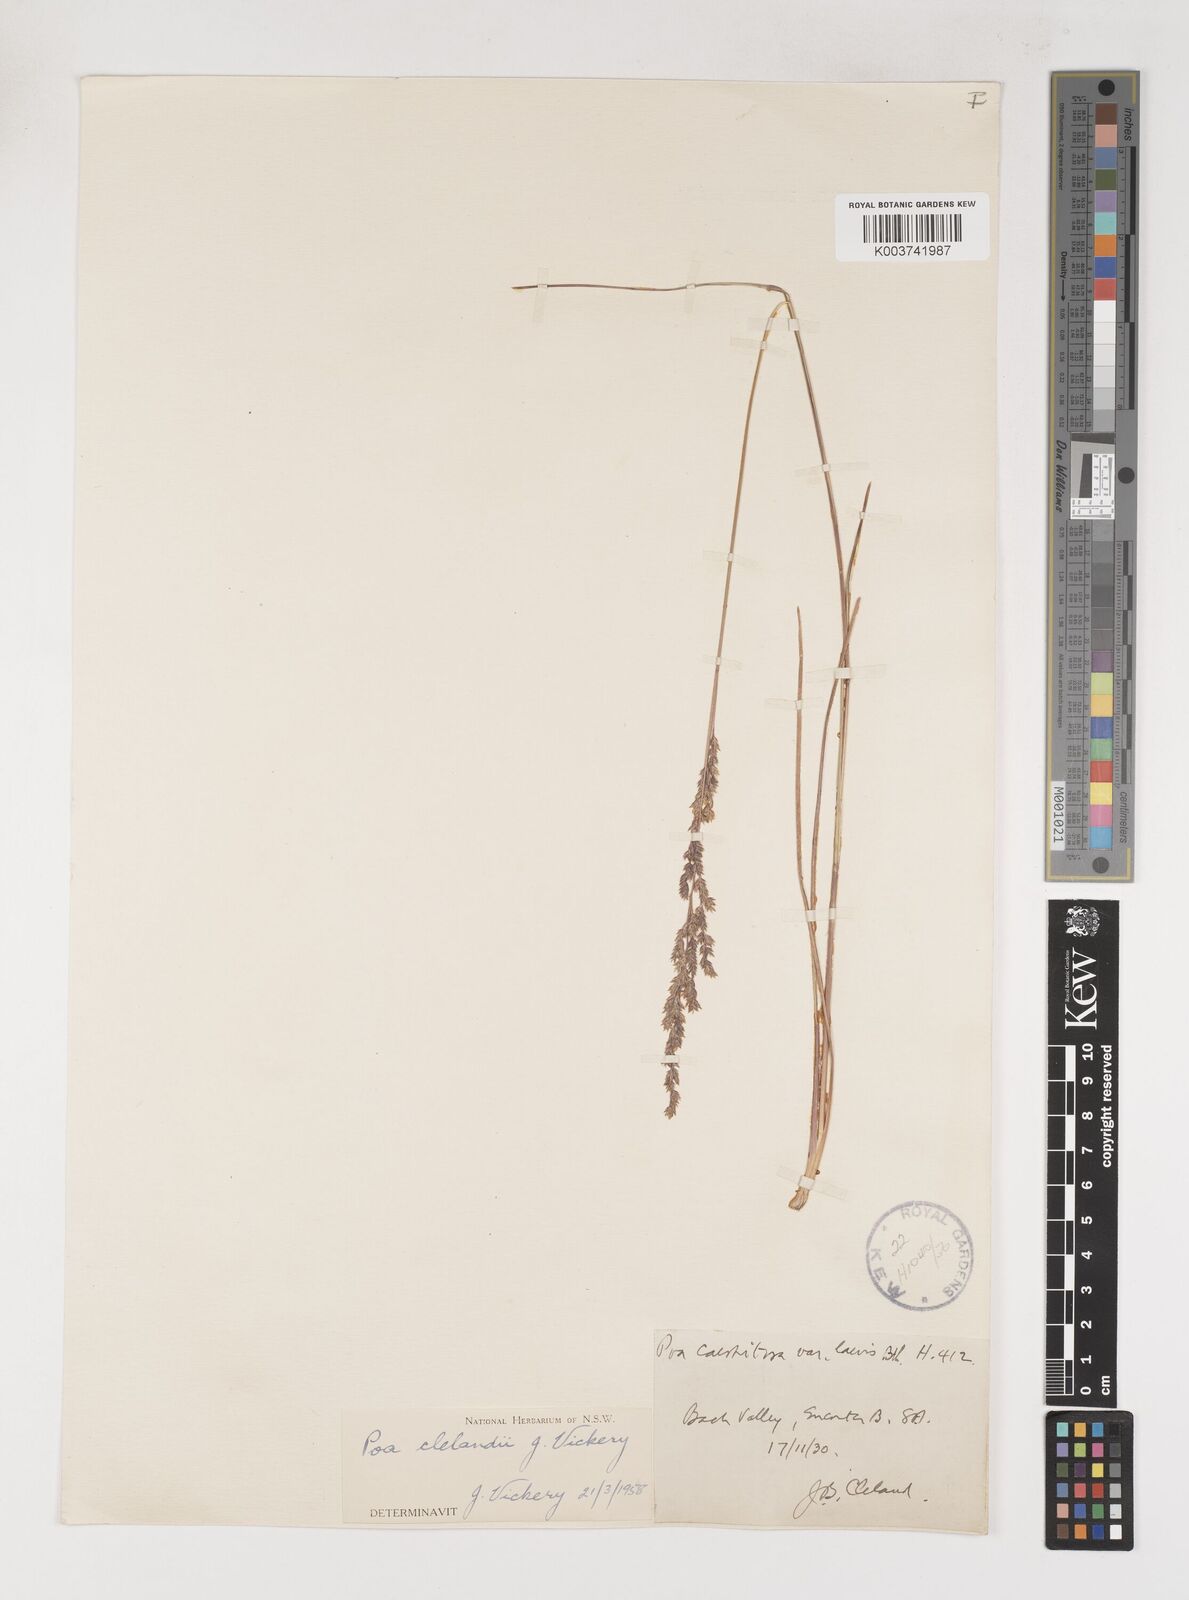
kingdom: Plantae
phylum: Tracheophyta
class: Liliopsida
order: Poales
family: Poaceae
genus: Poa
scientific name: Poa clelandii
